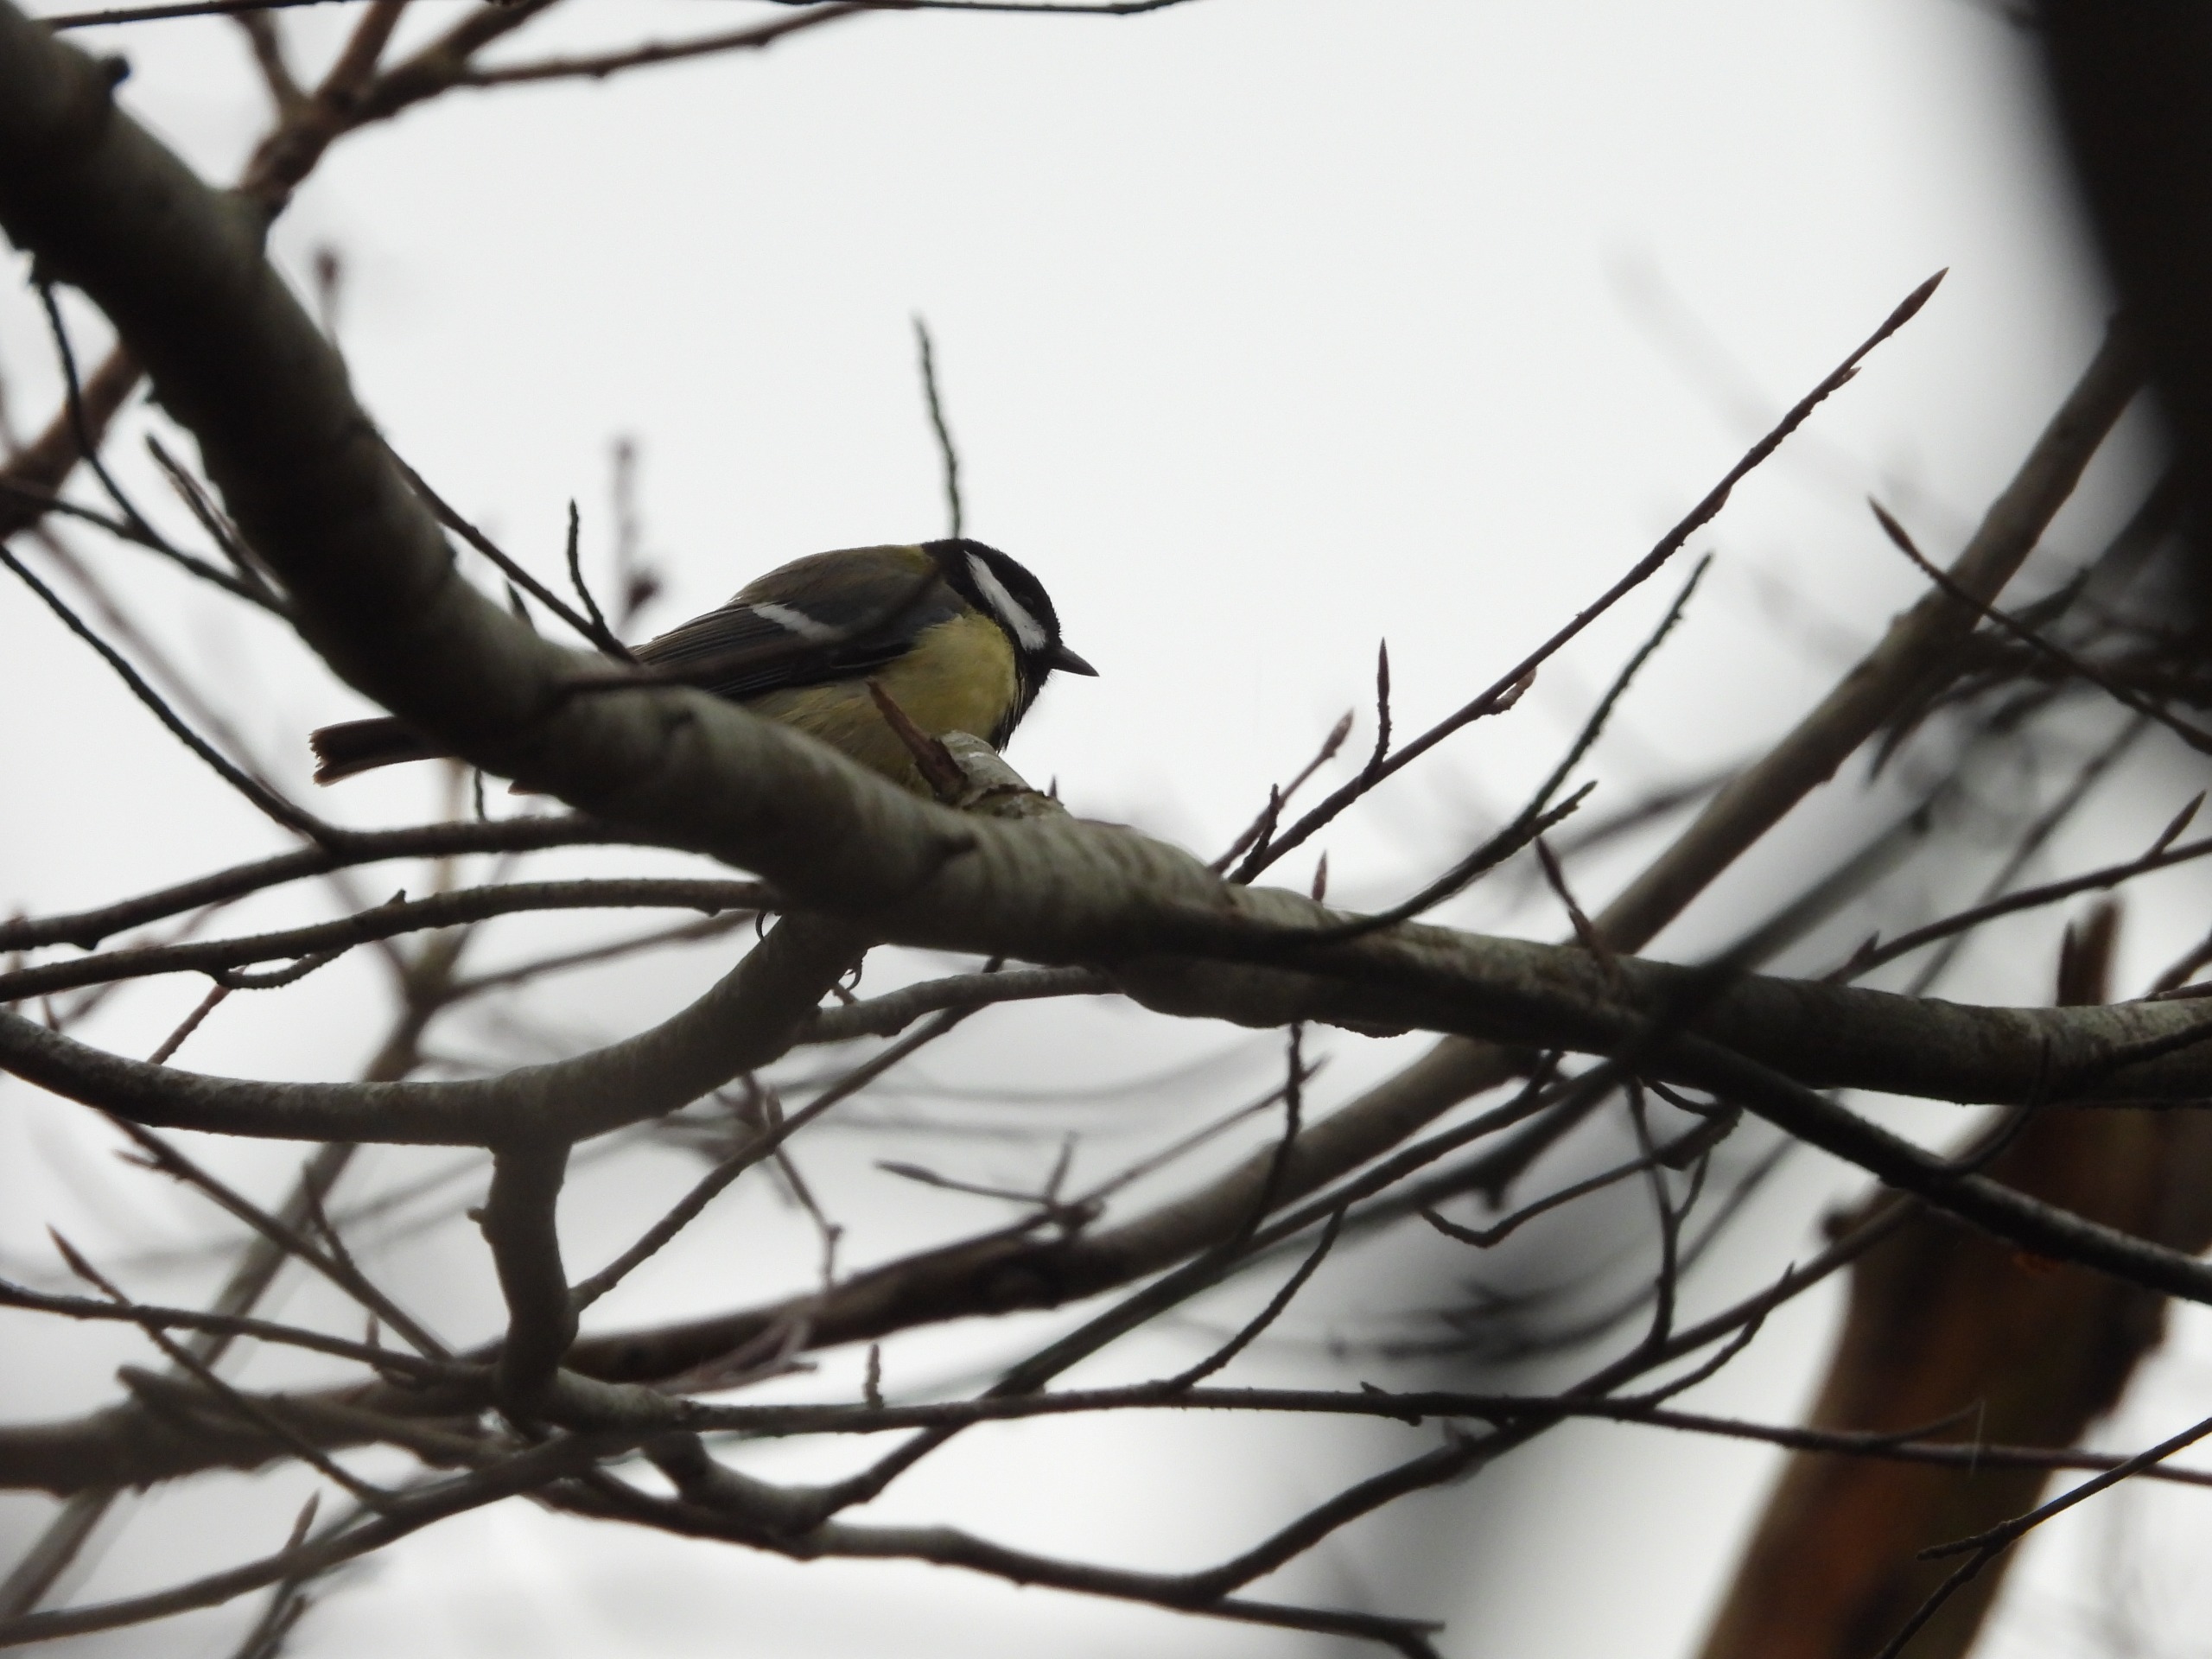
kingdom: Animalia
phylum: Chordata
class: Aves
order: Passeriformes
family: Paridae
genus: Parus
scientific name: Parus major
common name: Musvit
